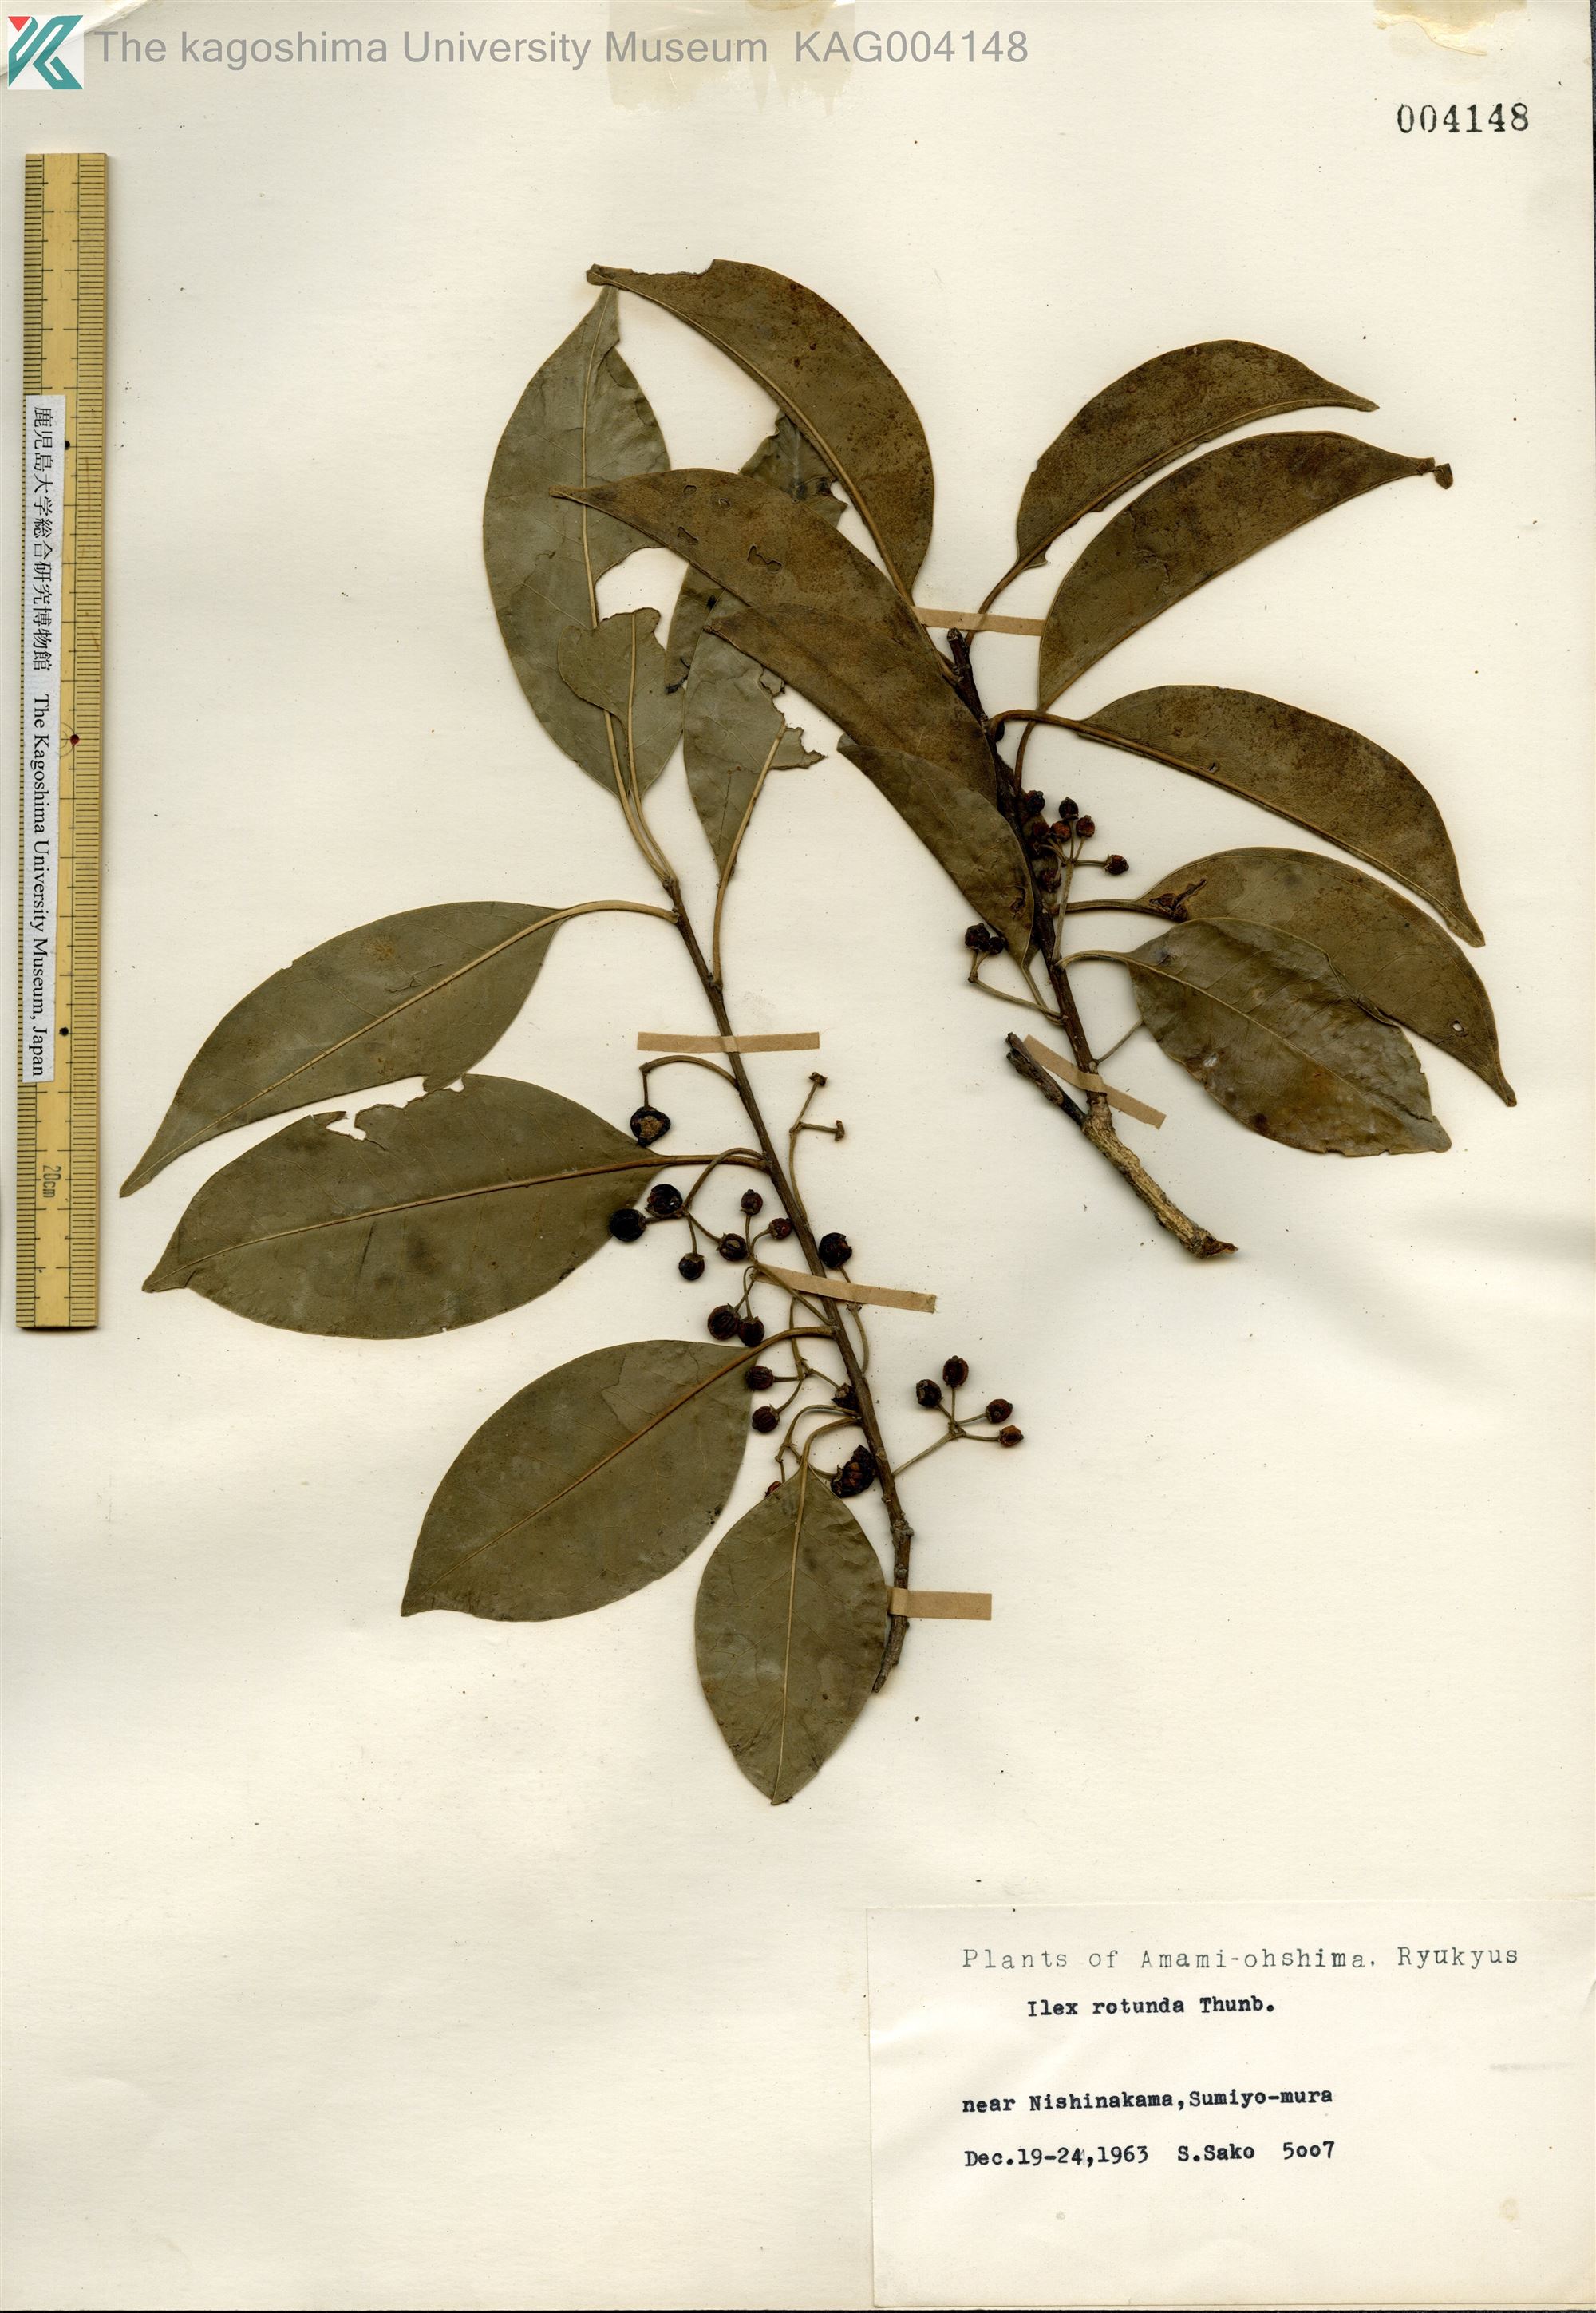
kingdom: Plantae
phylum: Tracheophyta
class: Magnoliopsida
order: Aquifoliales
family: Aquifoliaceae
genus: Ilex
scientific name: Ilex rotunda
